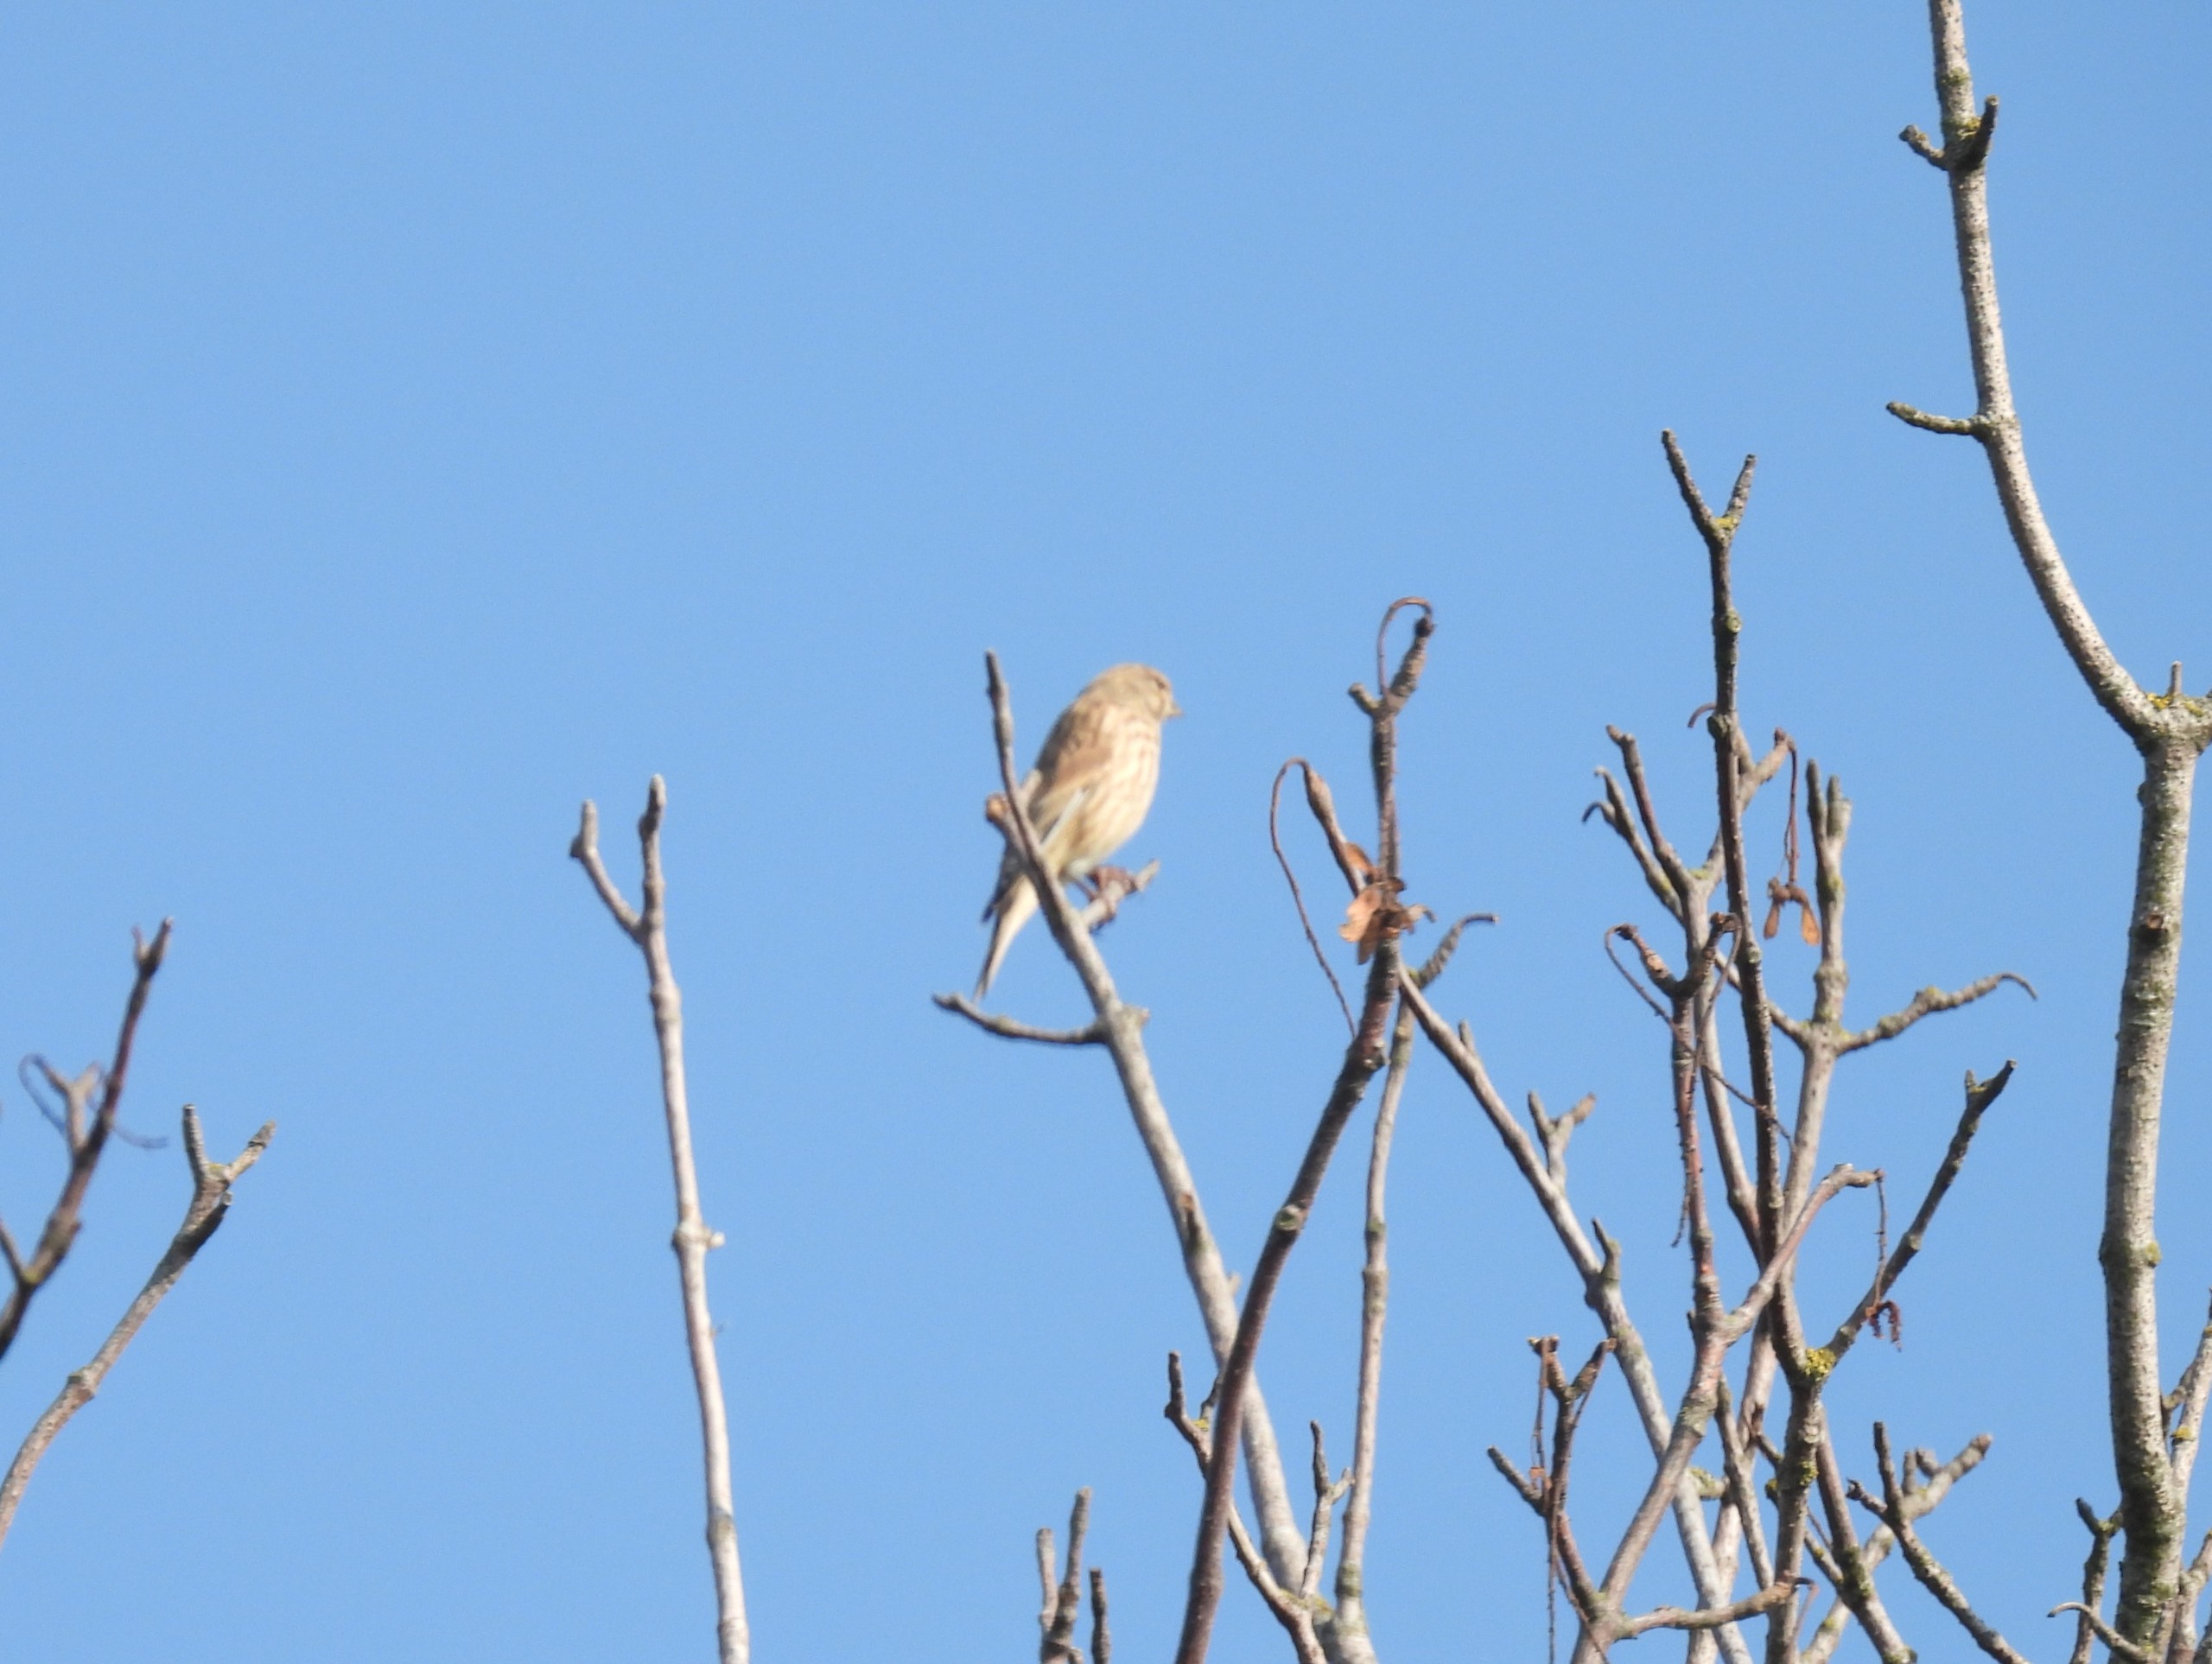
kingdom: Animalia
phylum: Chordata
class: Aves
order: Passeriformes
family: Fringillidae
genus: Linaria
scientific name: Linaria cannabina
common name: Tornirisk
